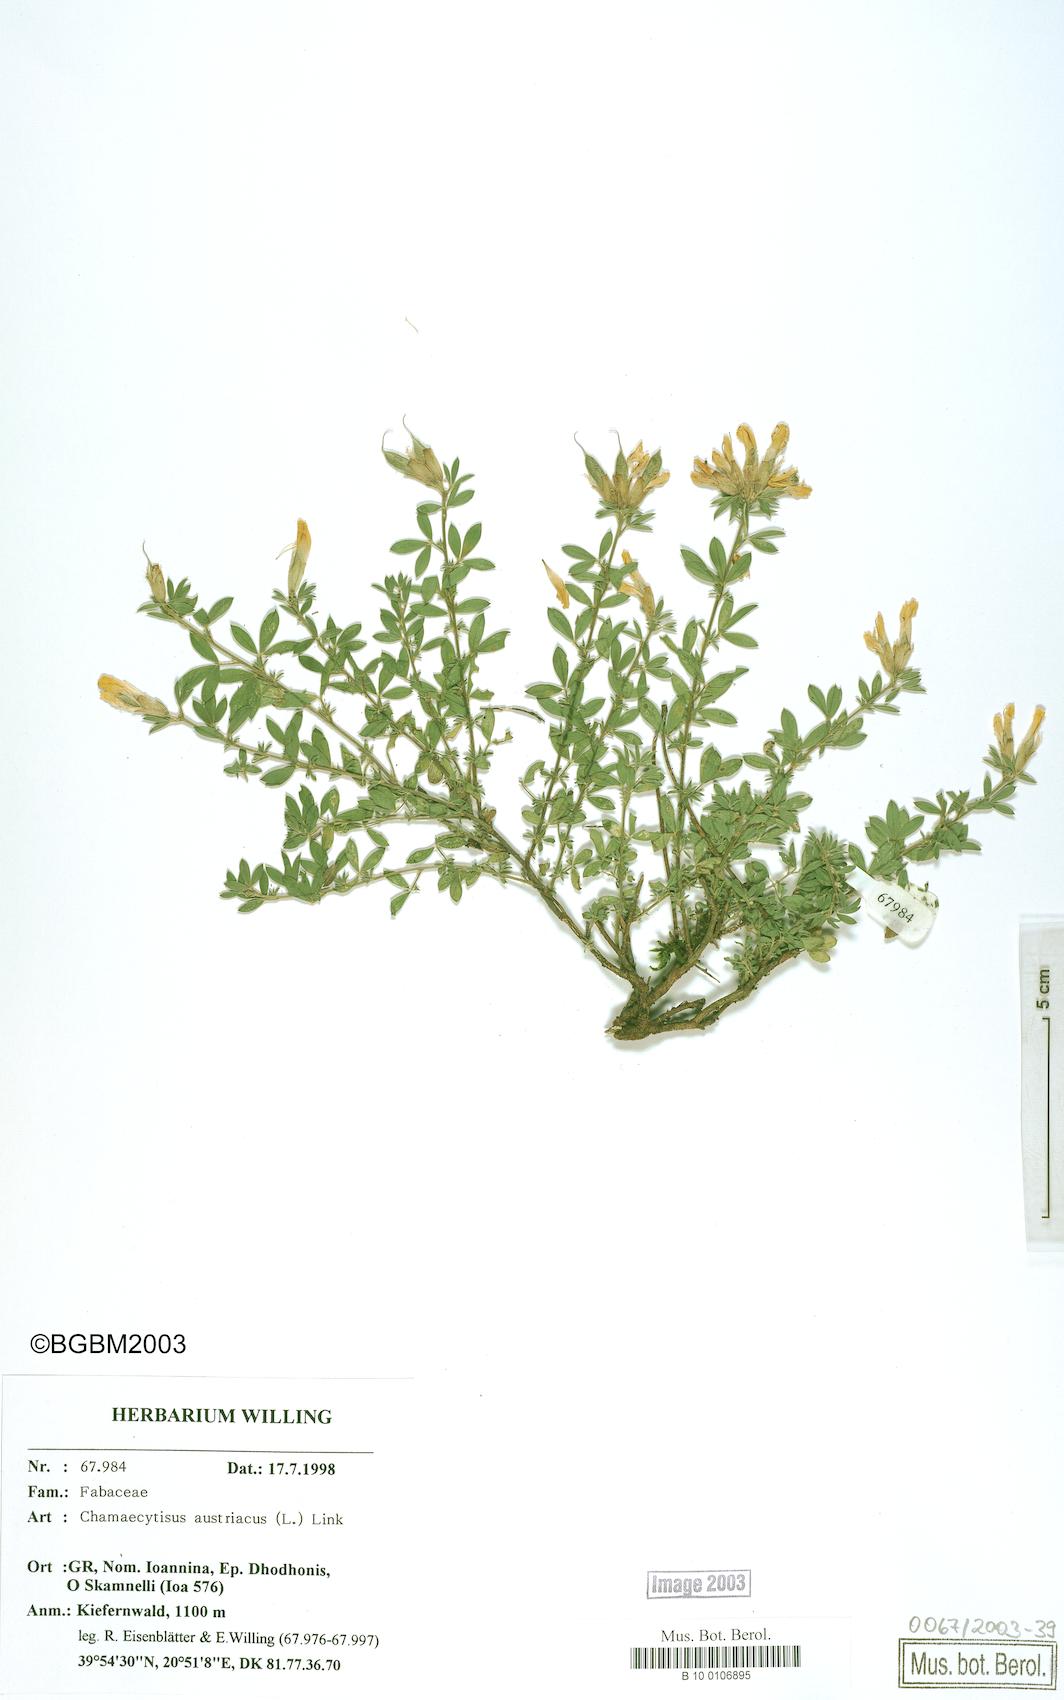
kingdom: Plantae
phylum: Tracheophyta
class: Magnoliopsida
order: Fabales
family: Fabaceae
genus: Chamaecytisus
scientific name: Chamaecytisus austriacus
